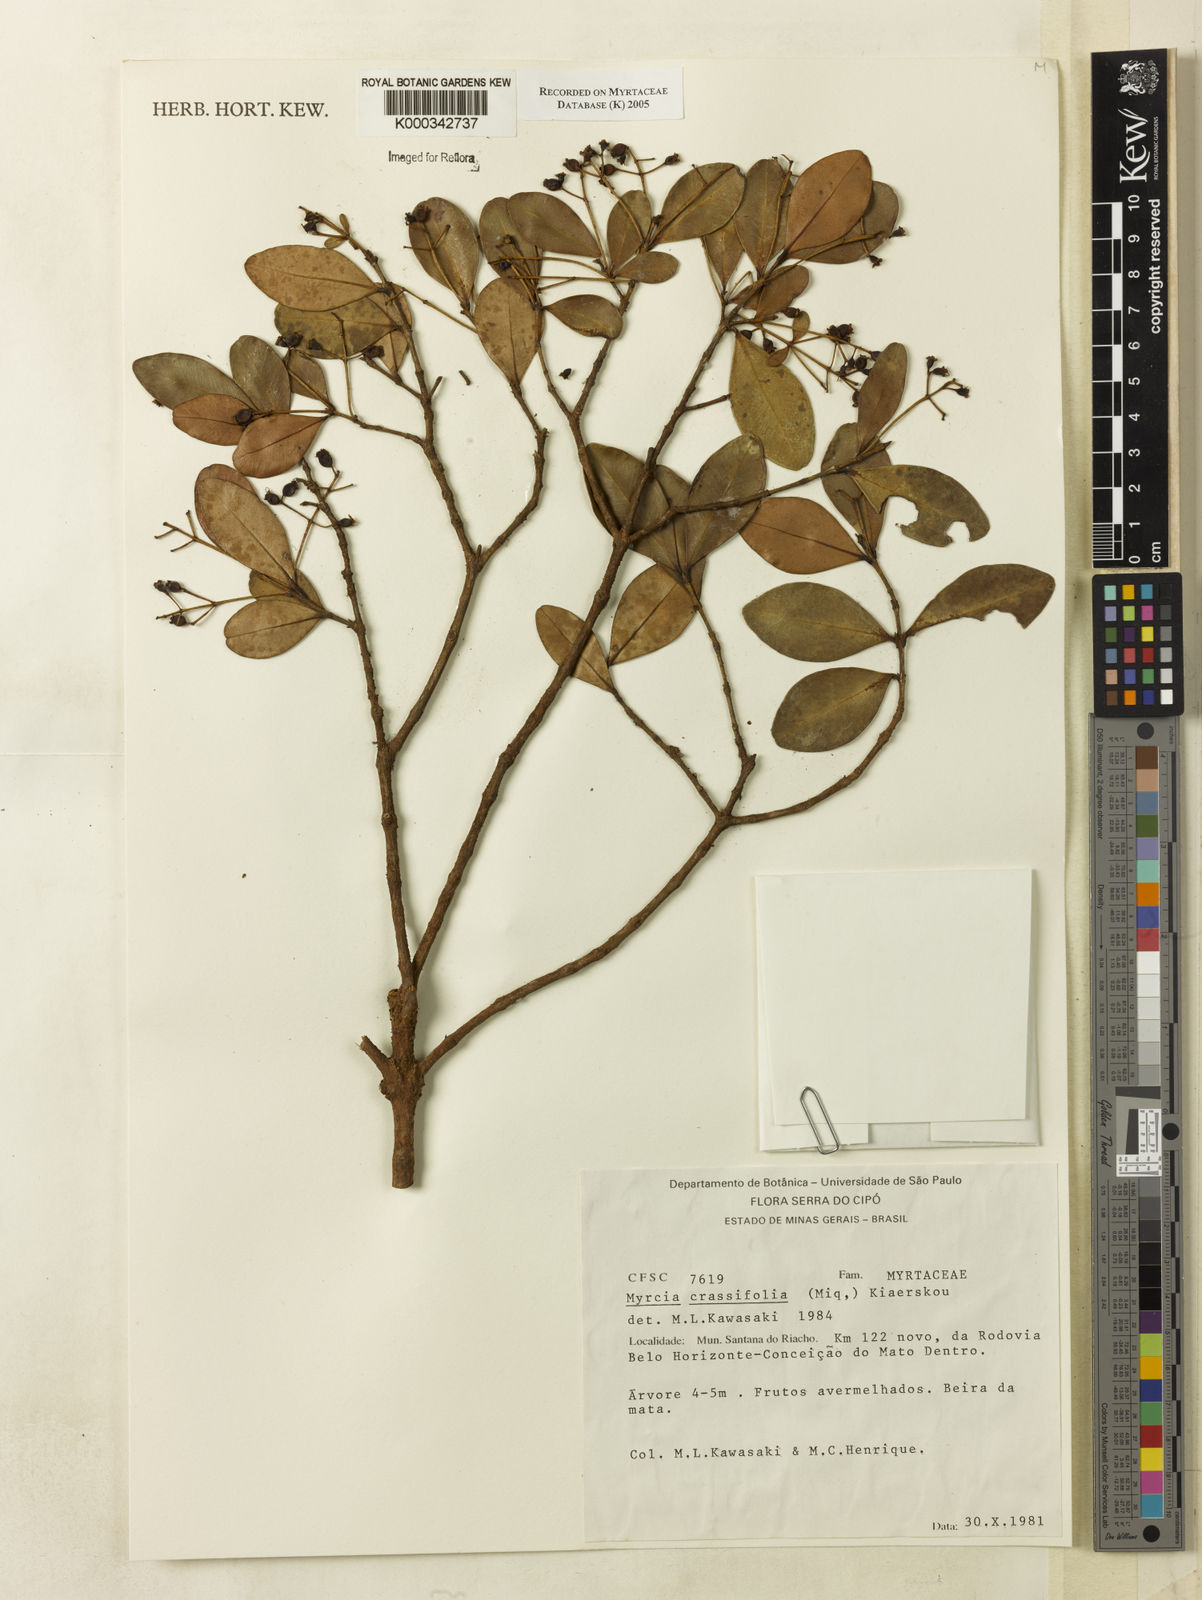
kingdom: Plantae
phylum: Tracheophyta
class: Magnoliopsida
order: Myrtales
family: Myrtaceae
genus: Myrcia
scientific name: Myrcia obovata
